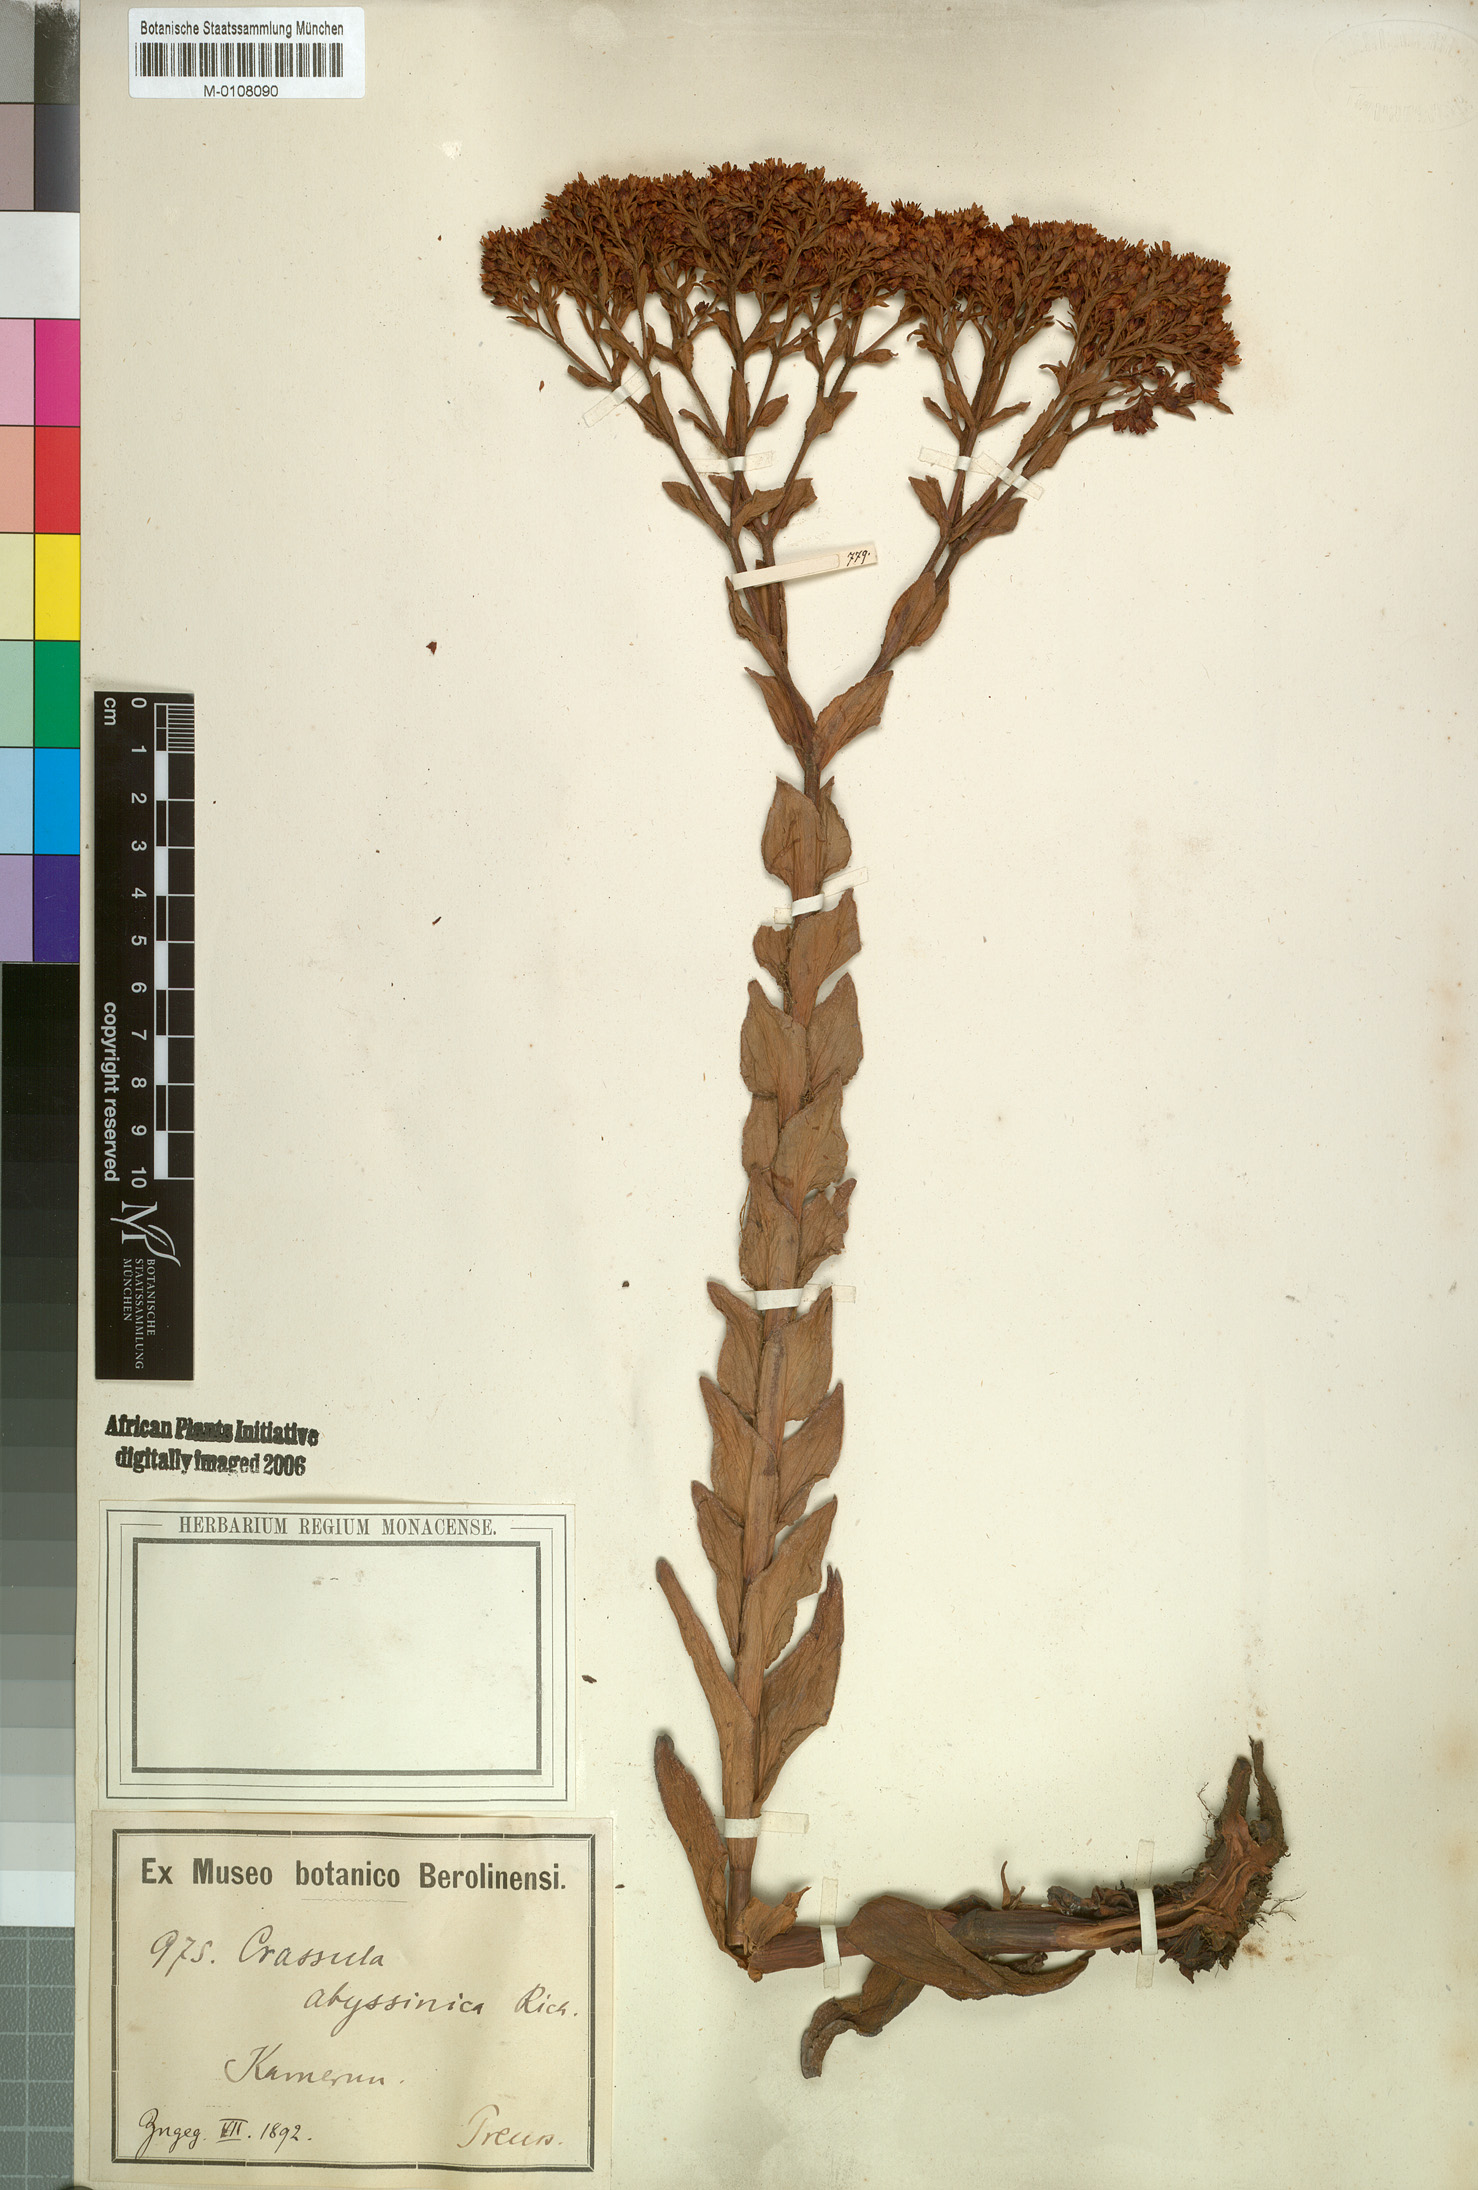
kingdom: Plantae
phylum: Tracheophyta
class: Magnoliopsida
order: Saxifragales
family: Crassulaceae
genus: Crassula
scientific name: Crassula vaginata
